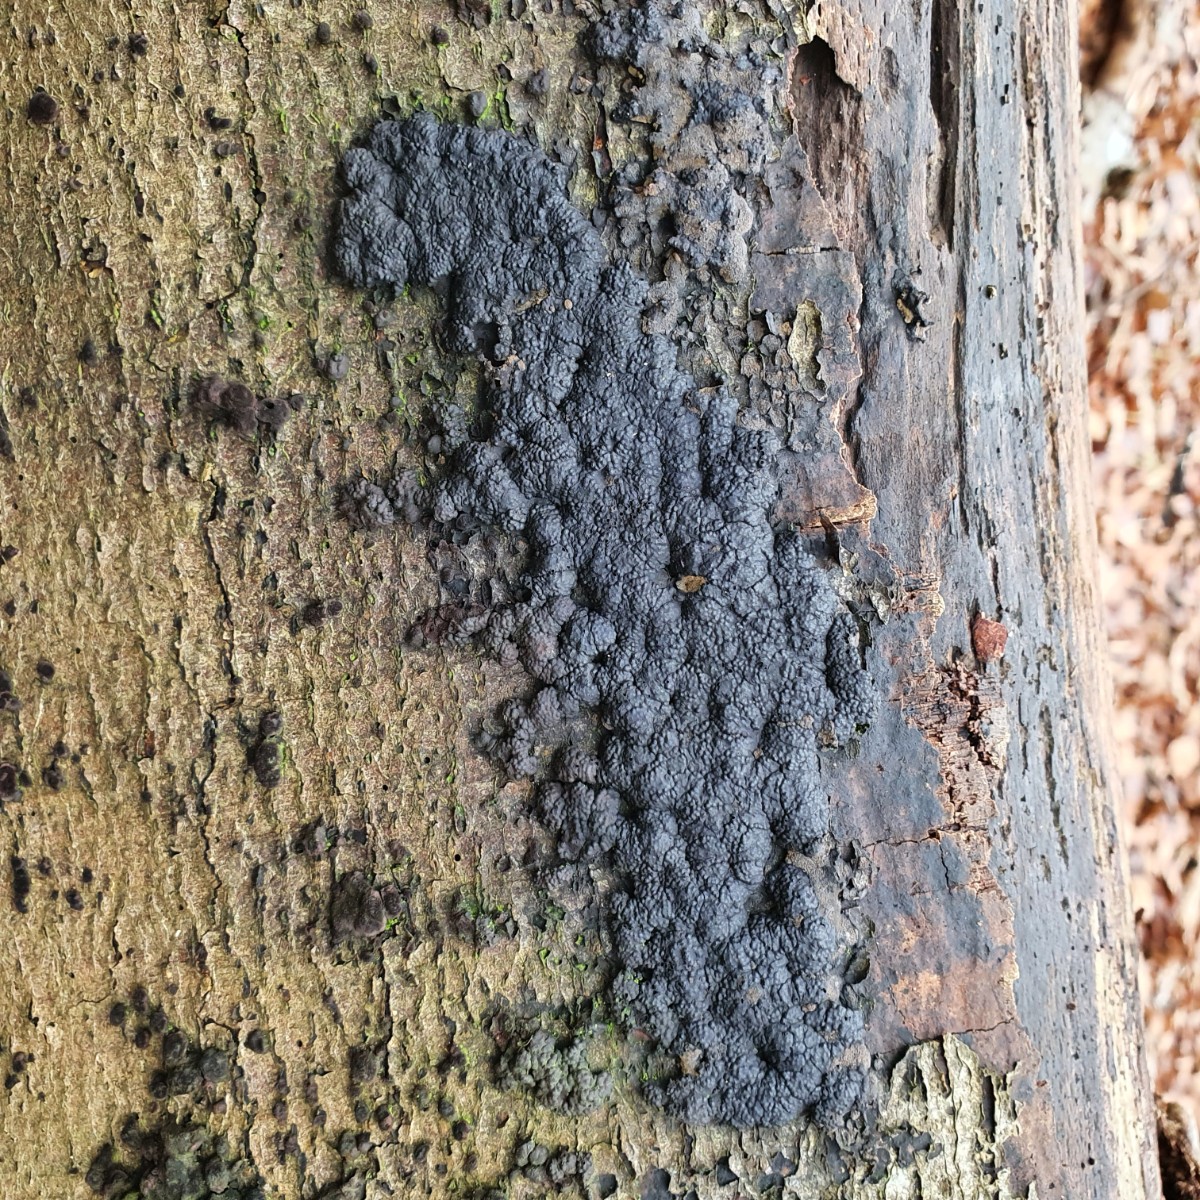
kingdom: Fungi
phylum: Ascomycota
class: Sordariomycetes
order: Xylariales
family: Hypoxylaceae
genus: Jackrogersella
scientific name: Jackrogersella cohaerens
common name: sammenflydende kulbær
